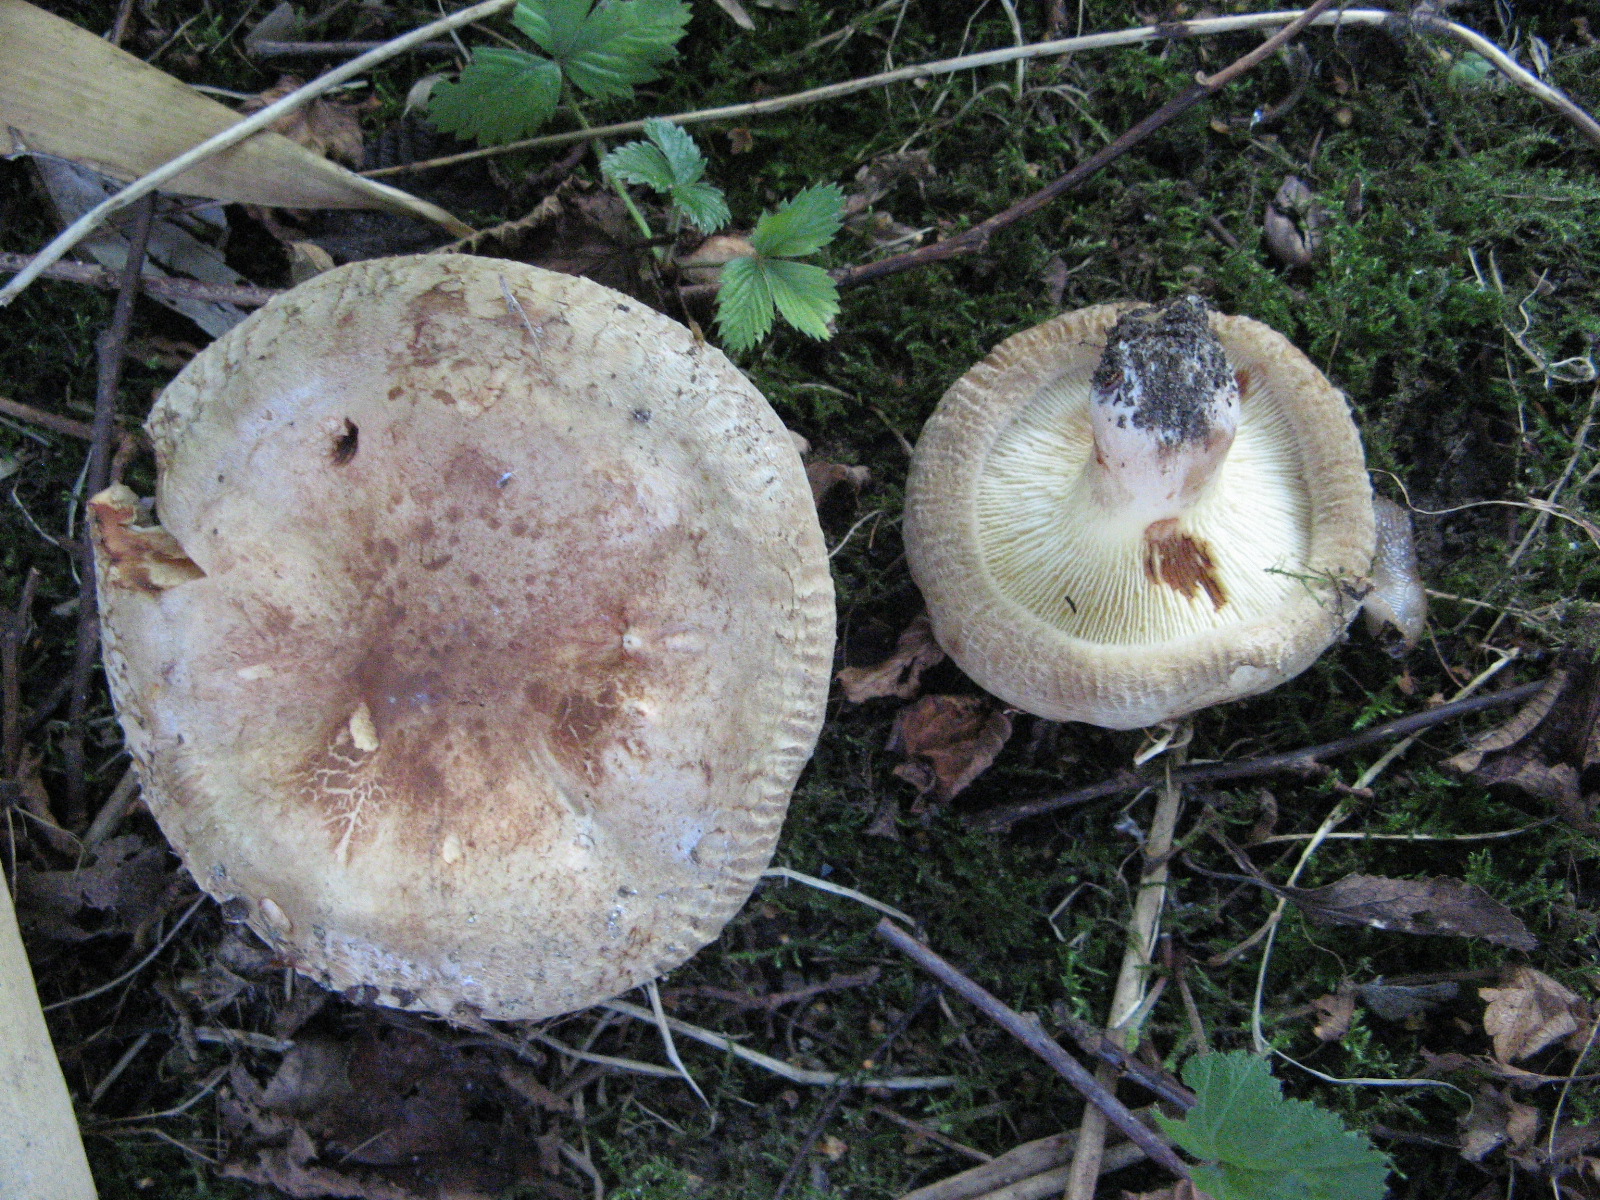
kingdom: Fungi
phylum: Basidiomycota
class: Agaricomycetes
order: Boletales
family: Paxillaceae
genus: Paxillus
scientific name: Paxillus obscurisporus
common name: mahognisporet netbladhat
